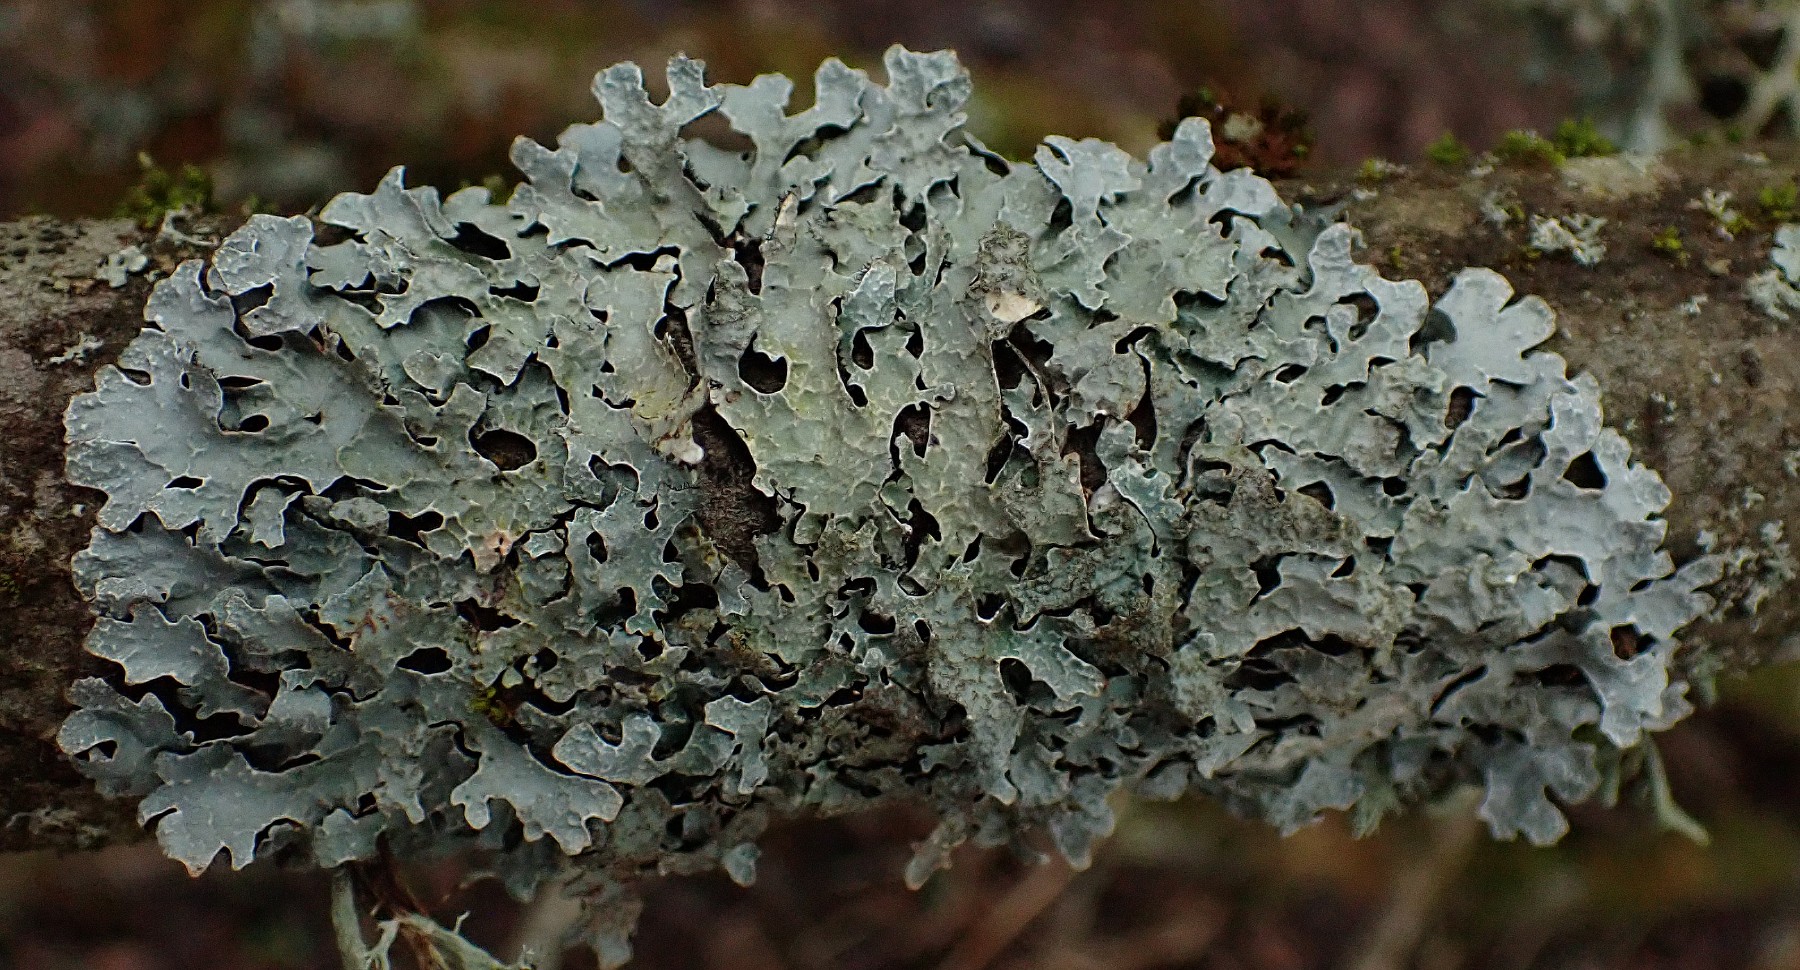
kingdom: Fungi
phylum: Ascomycota
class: Lecanoromycetes
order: Lecanorales
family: Parmeliaceae
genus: Parmelia
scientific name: Parmelia sulcata
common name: rynket skållav
